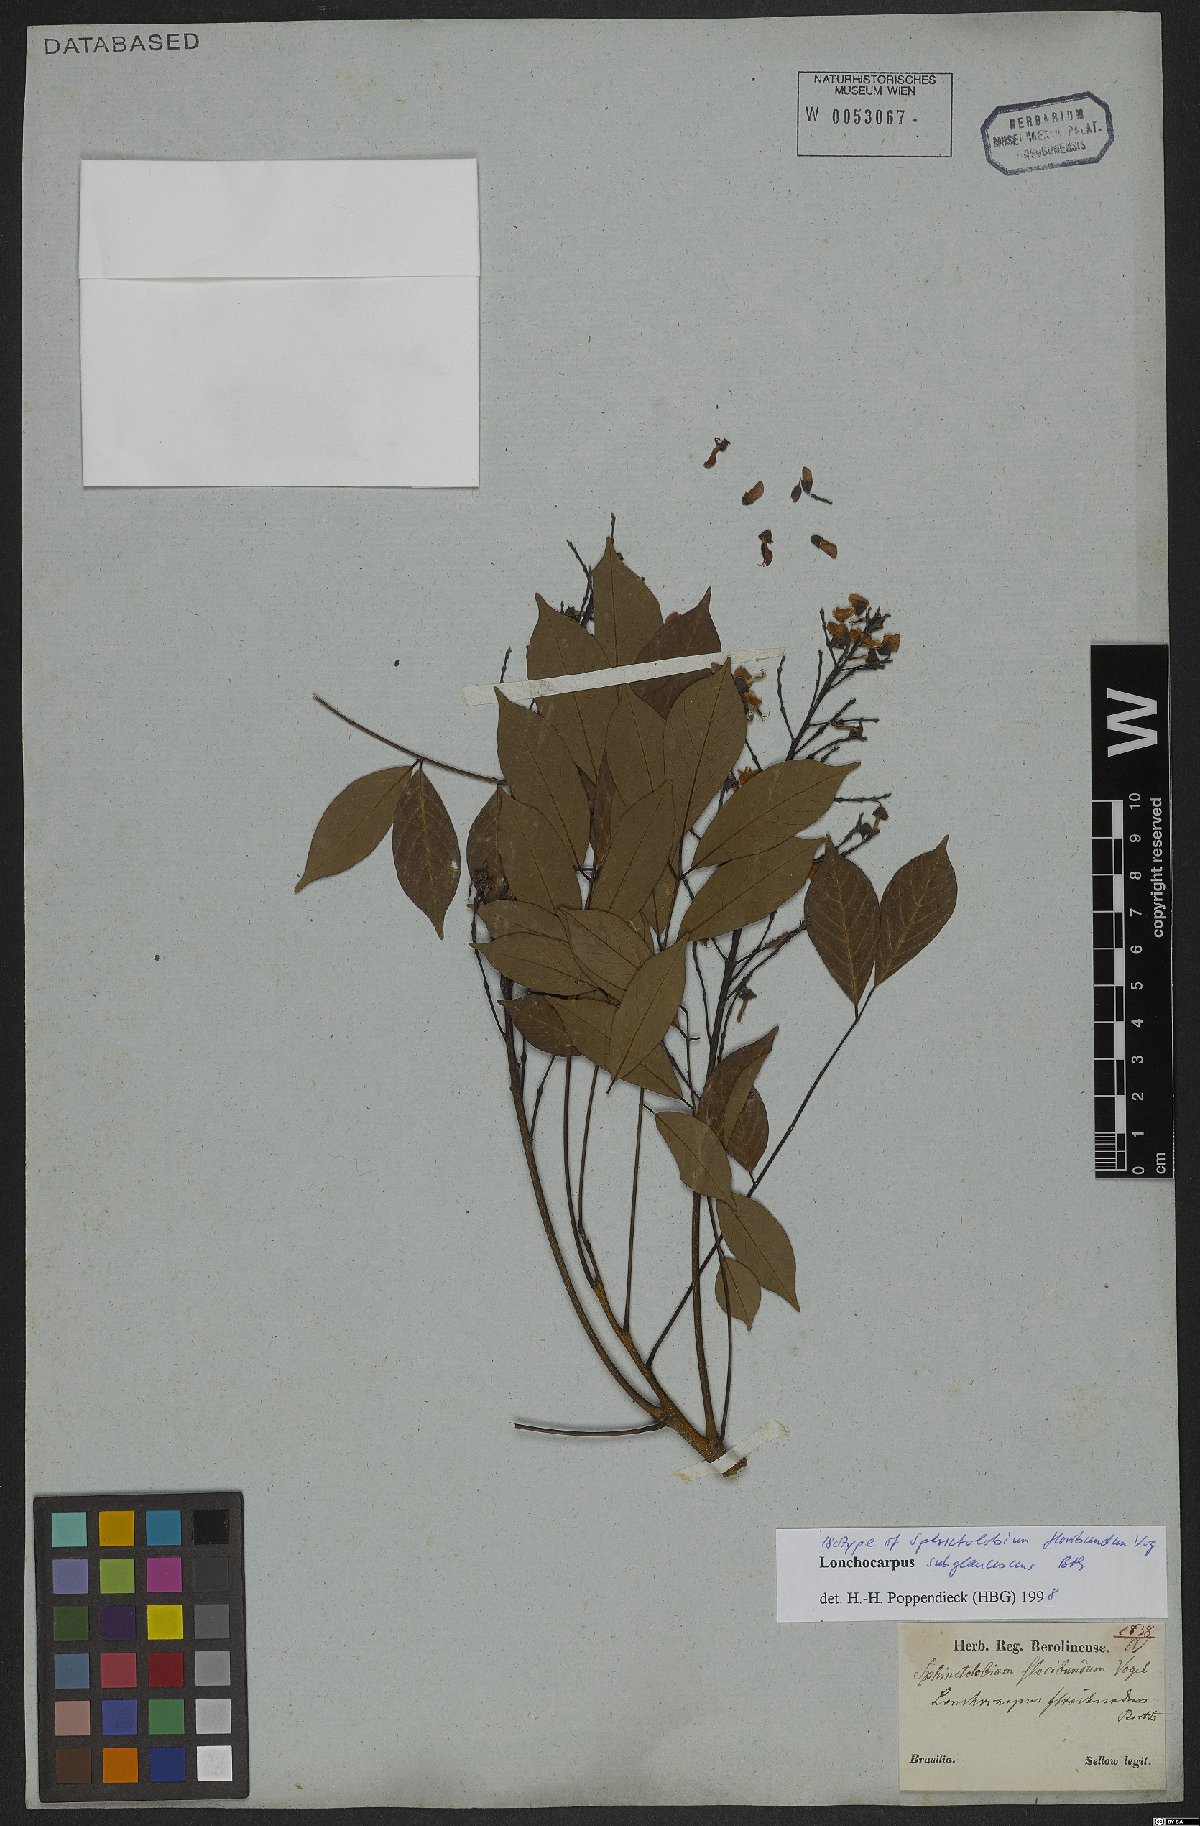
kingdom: Plantae
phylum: Tracheophyta
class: Magnoliopsida
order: Fabales
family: Fabaceae
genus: Lonchocarpus
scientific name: Lonchocarpus subglaucescens
